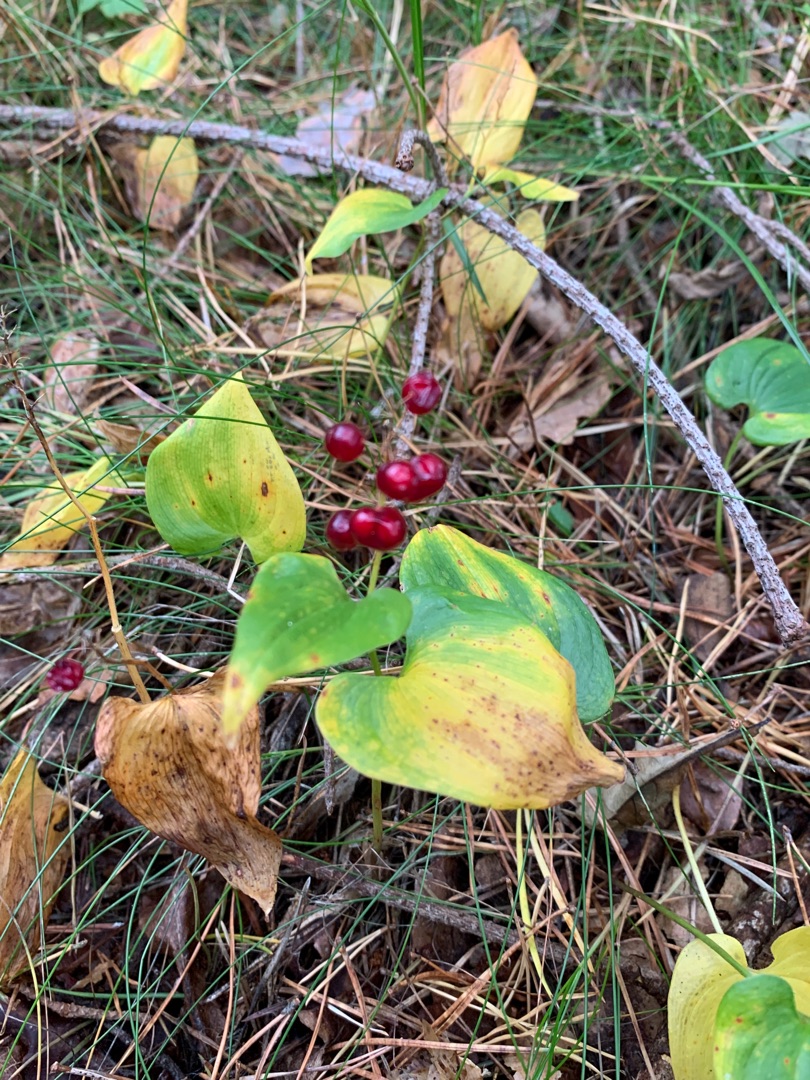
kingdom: Plantae
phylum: Tracheophyta
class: Liliopsida
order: Asparagales
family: Asparagaceae
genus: Maianthemum
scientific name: Maianthemum bifolium
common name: Majblomst
